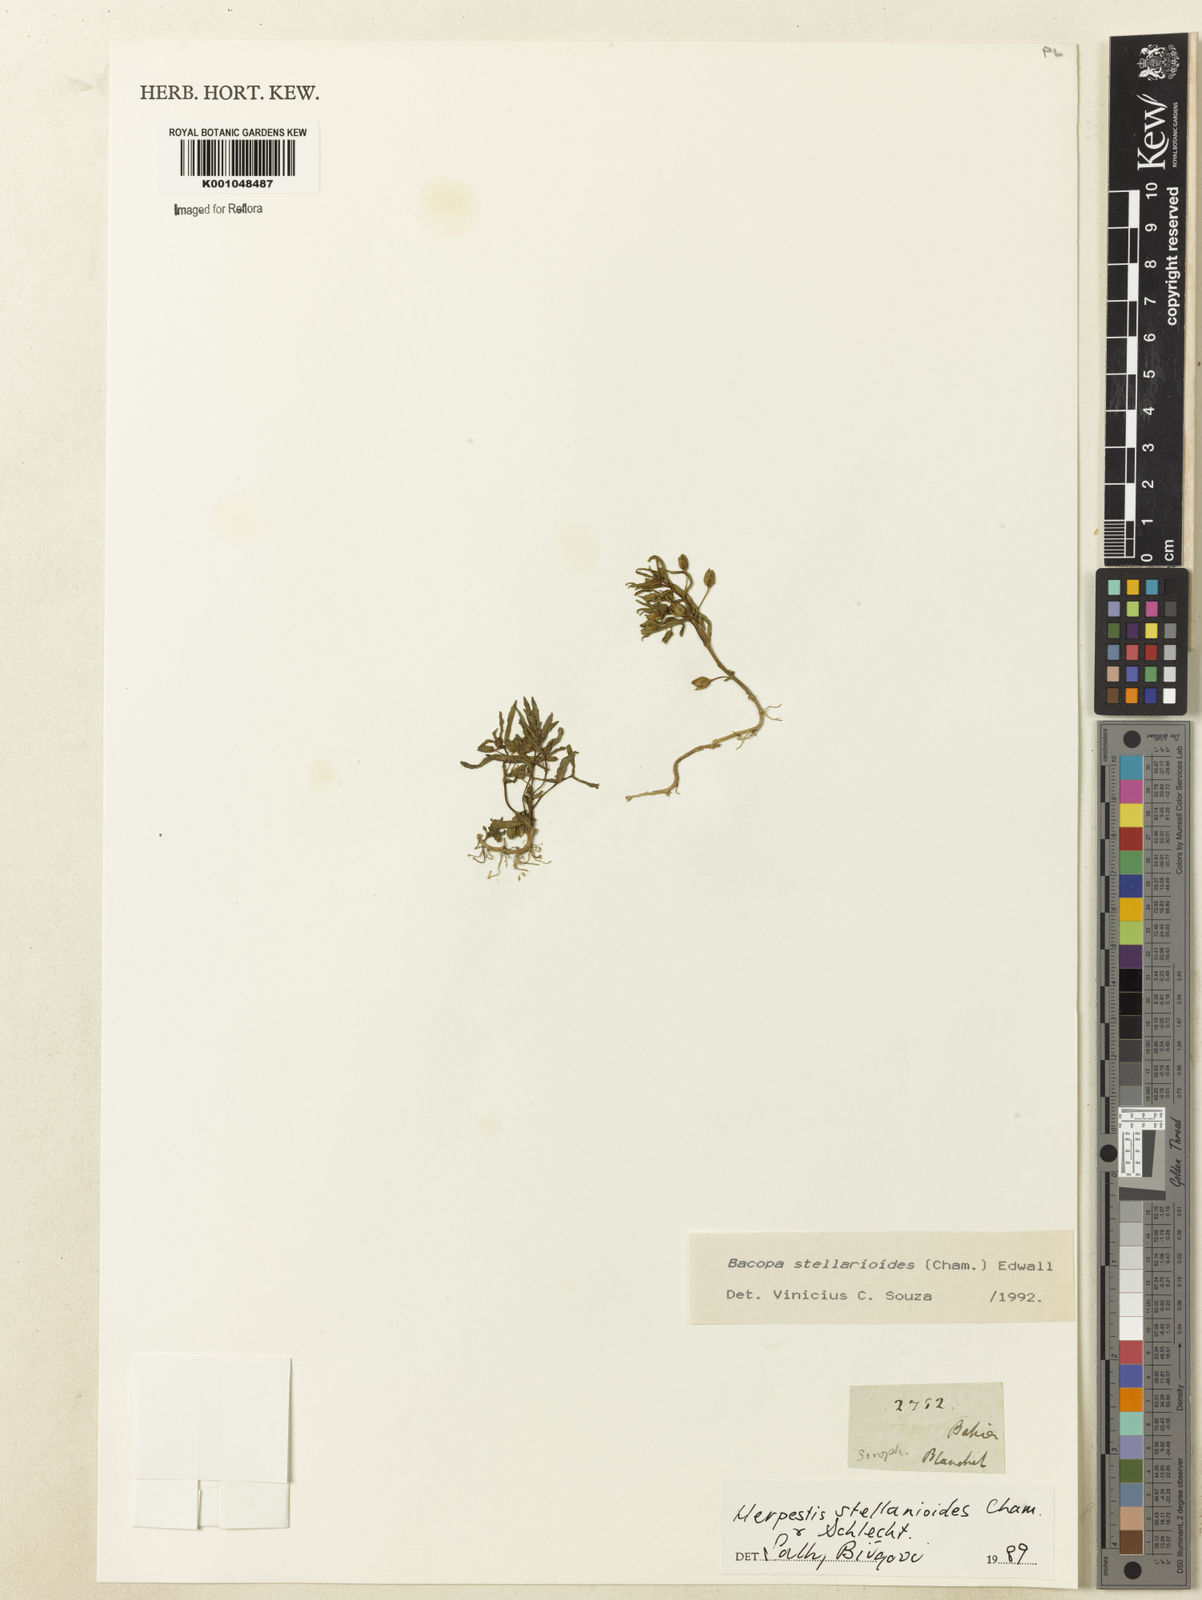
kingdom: Plantae
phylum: Tracheophyta
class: Magnoliopsida
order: Lamiales
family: Plantaginaceae
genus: Bacopa
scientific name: Bacopa aquatica
